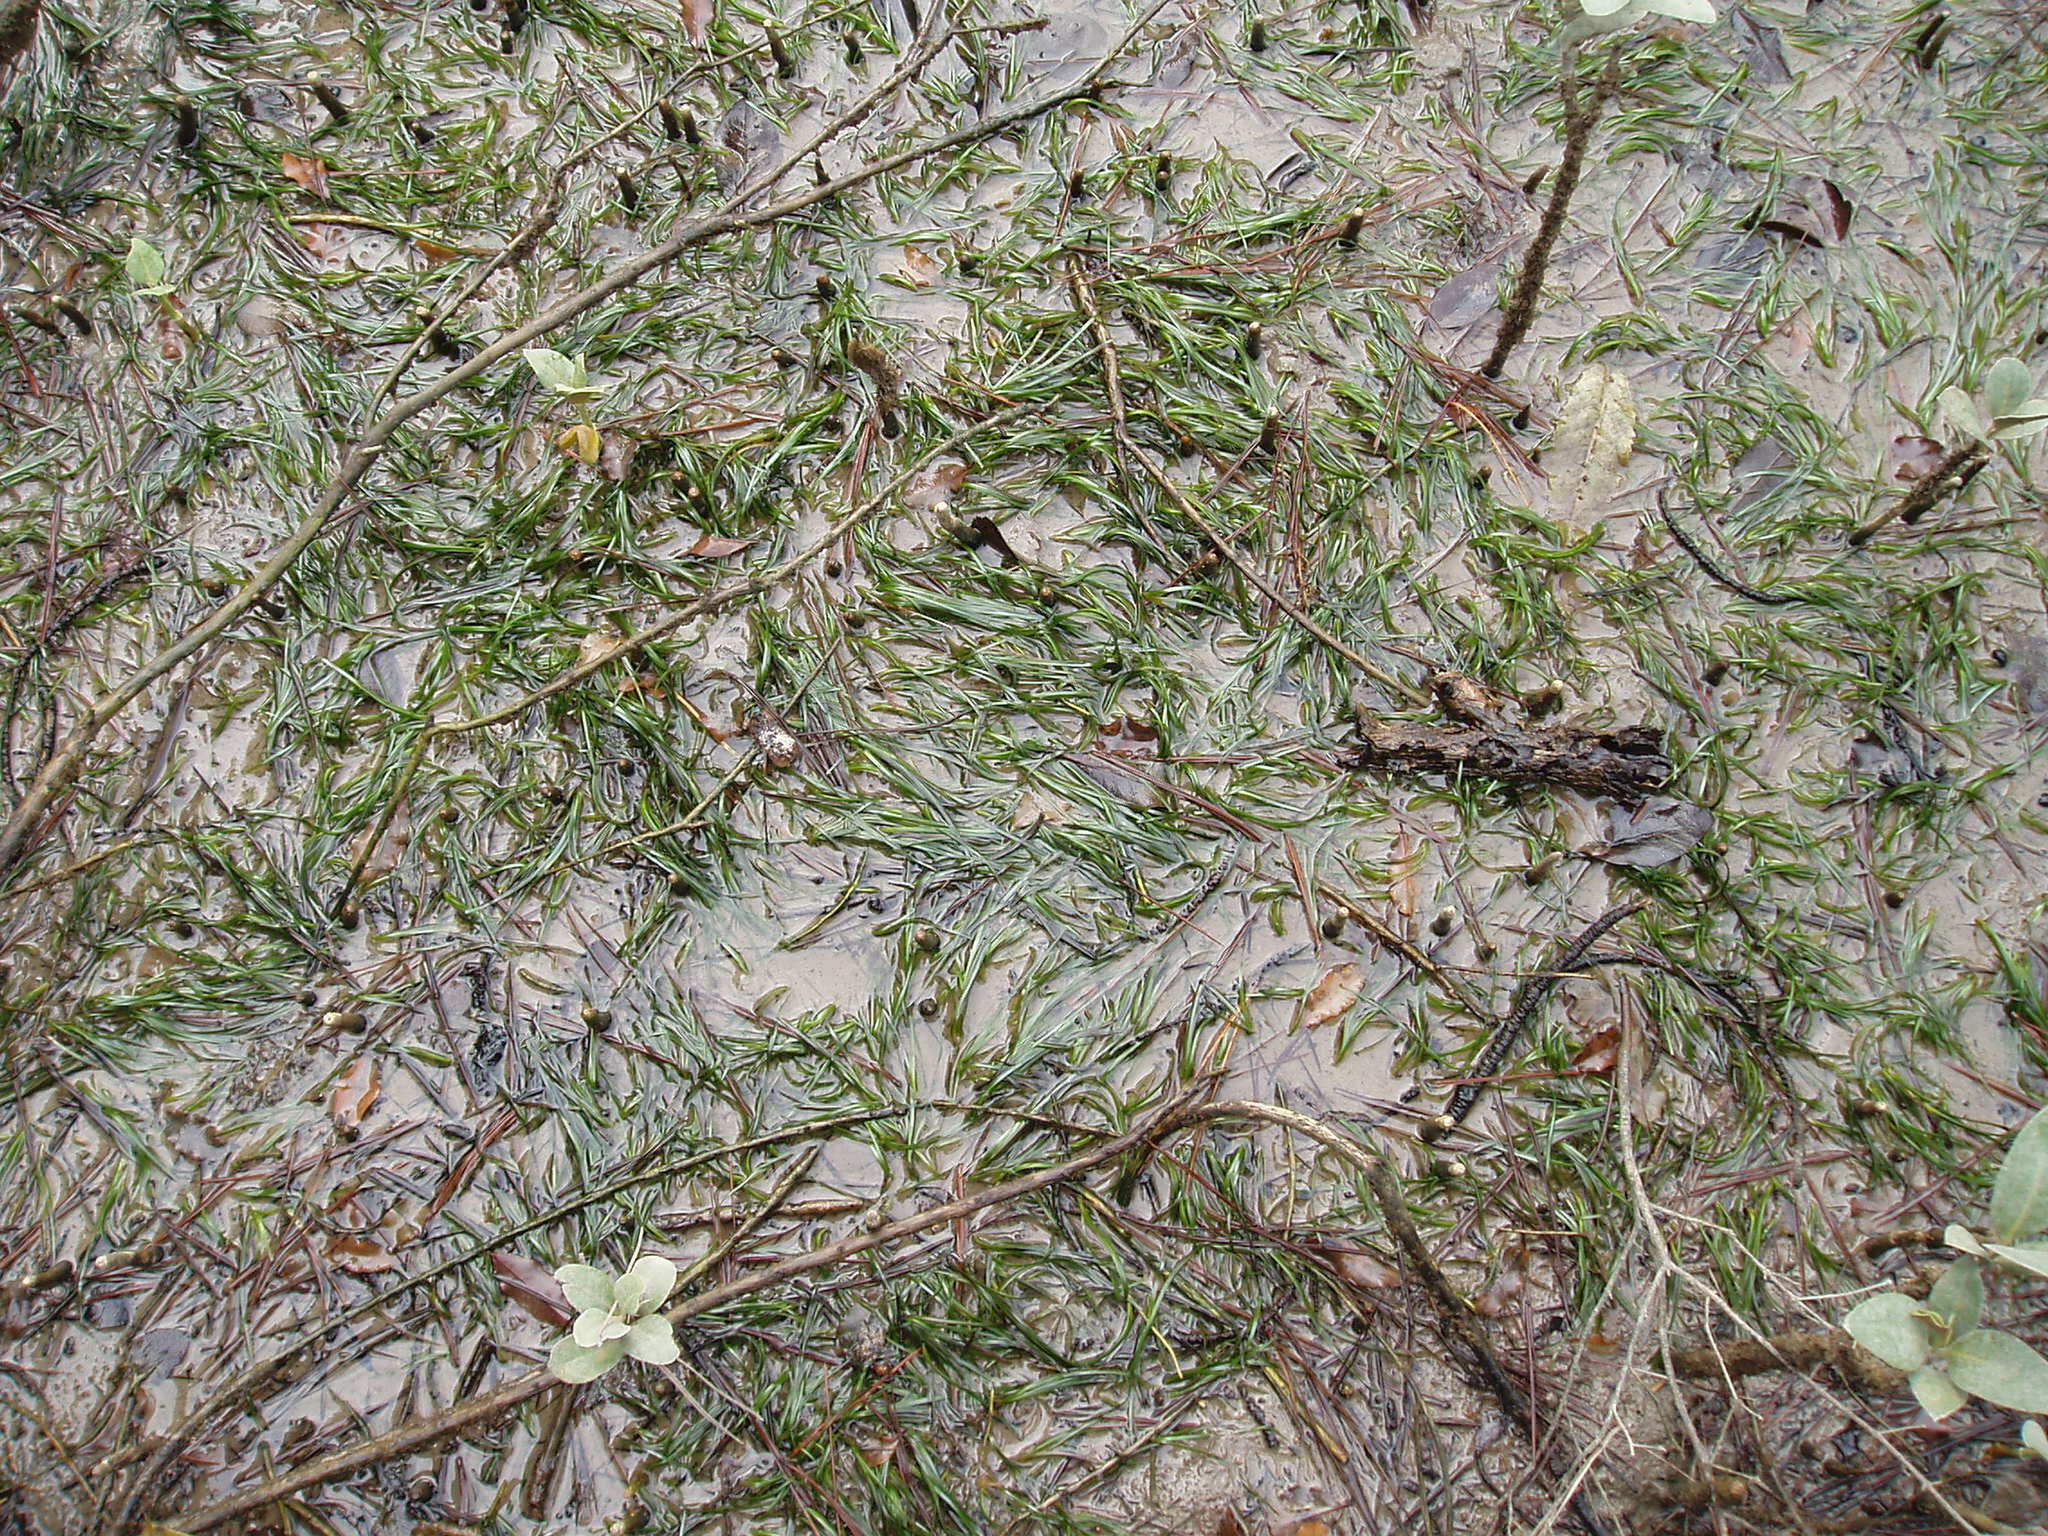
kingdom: Plantae
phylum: Tracheophyta
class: Liliopsida
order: Alismatales
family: Zosteraceae
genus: Zostera
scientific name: Zostera muelleri
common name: Species code: zc
